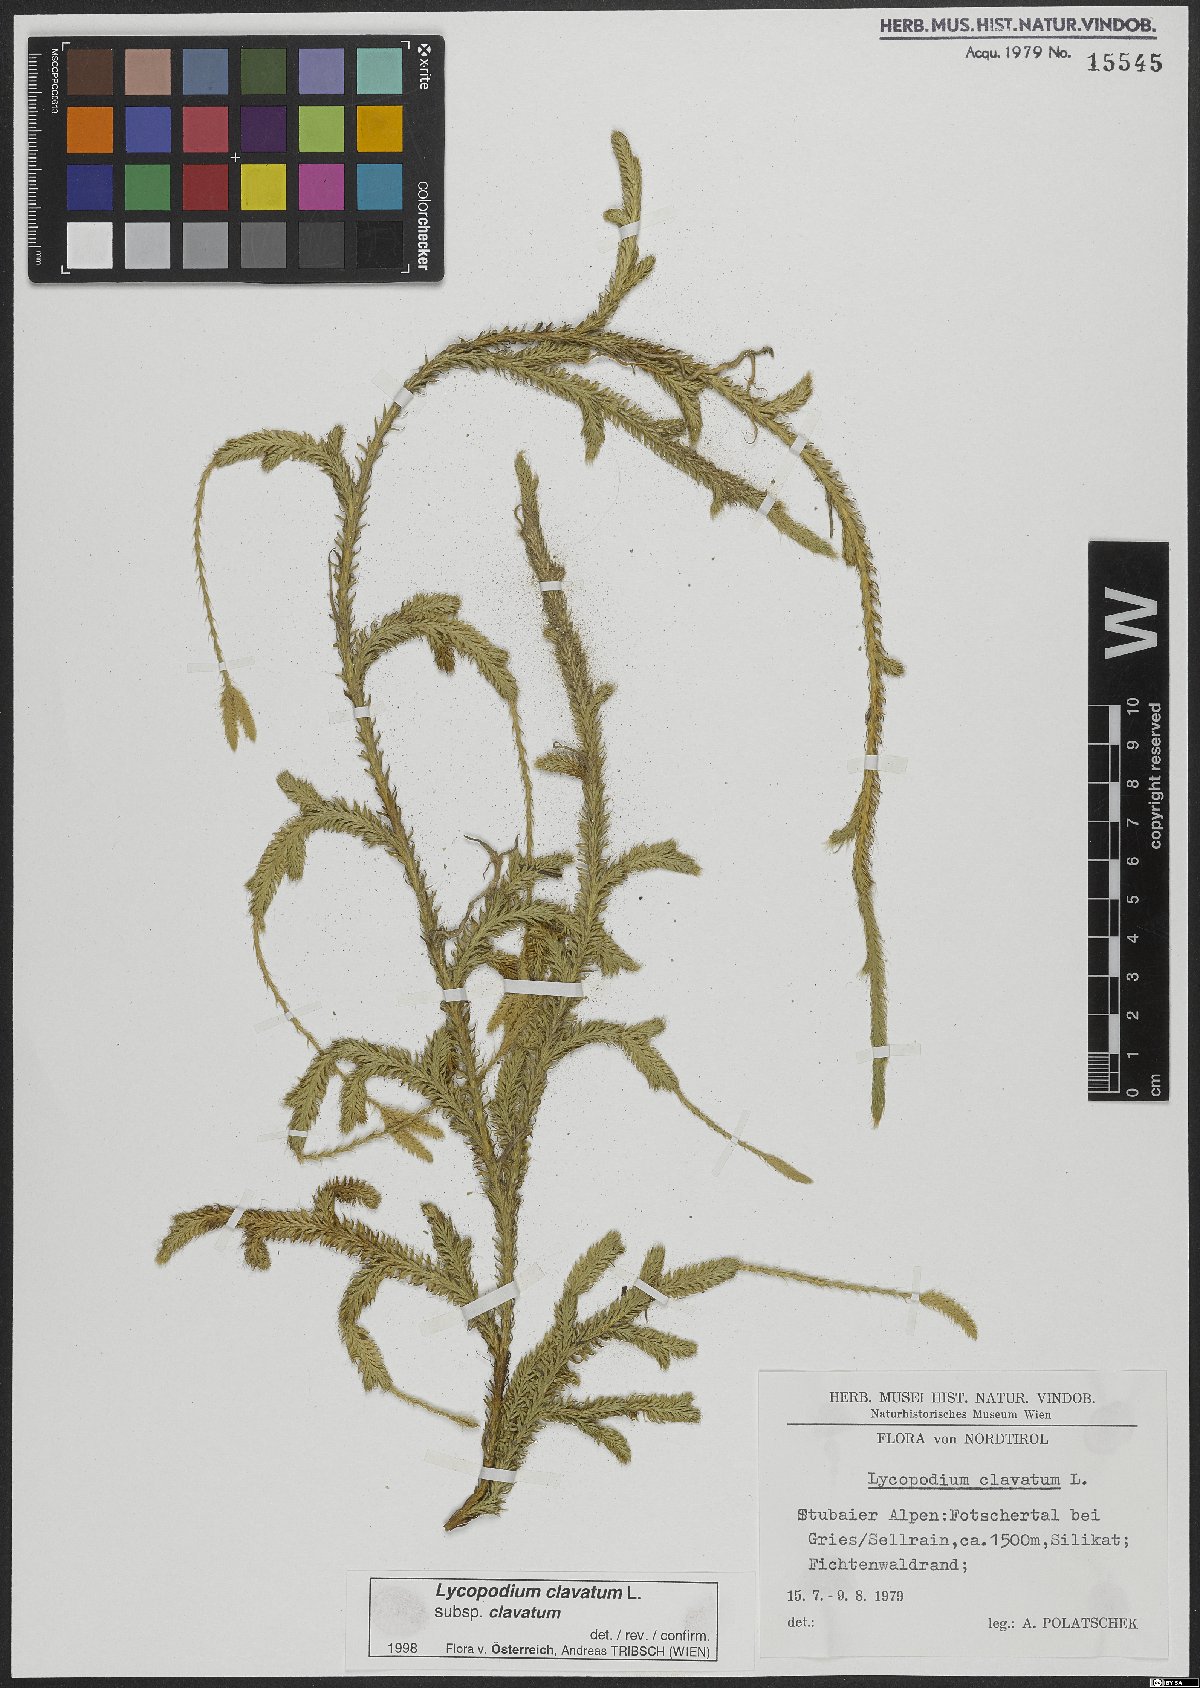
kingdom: Plantae
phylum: Tracheophyta
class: Lycopodiopsida
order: Lycopodiales
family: Lycopodiaceae
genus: Lycopodium
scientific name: Lycopodium clavatum
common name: Stag's-horn clubmoss
